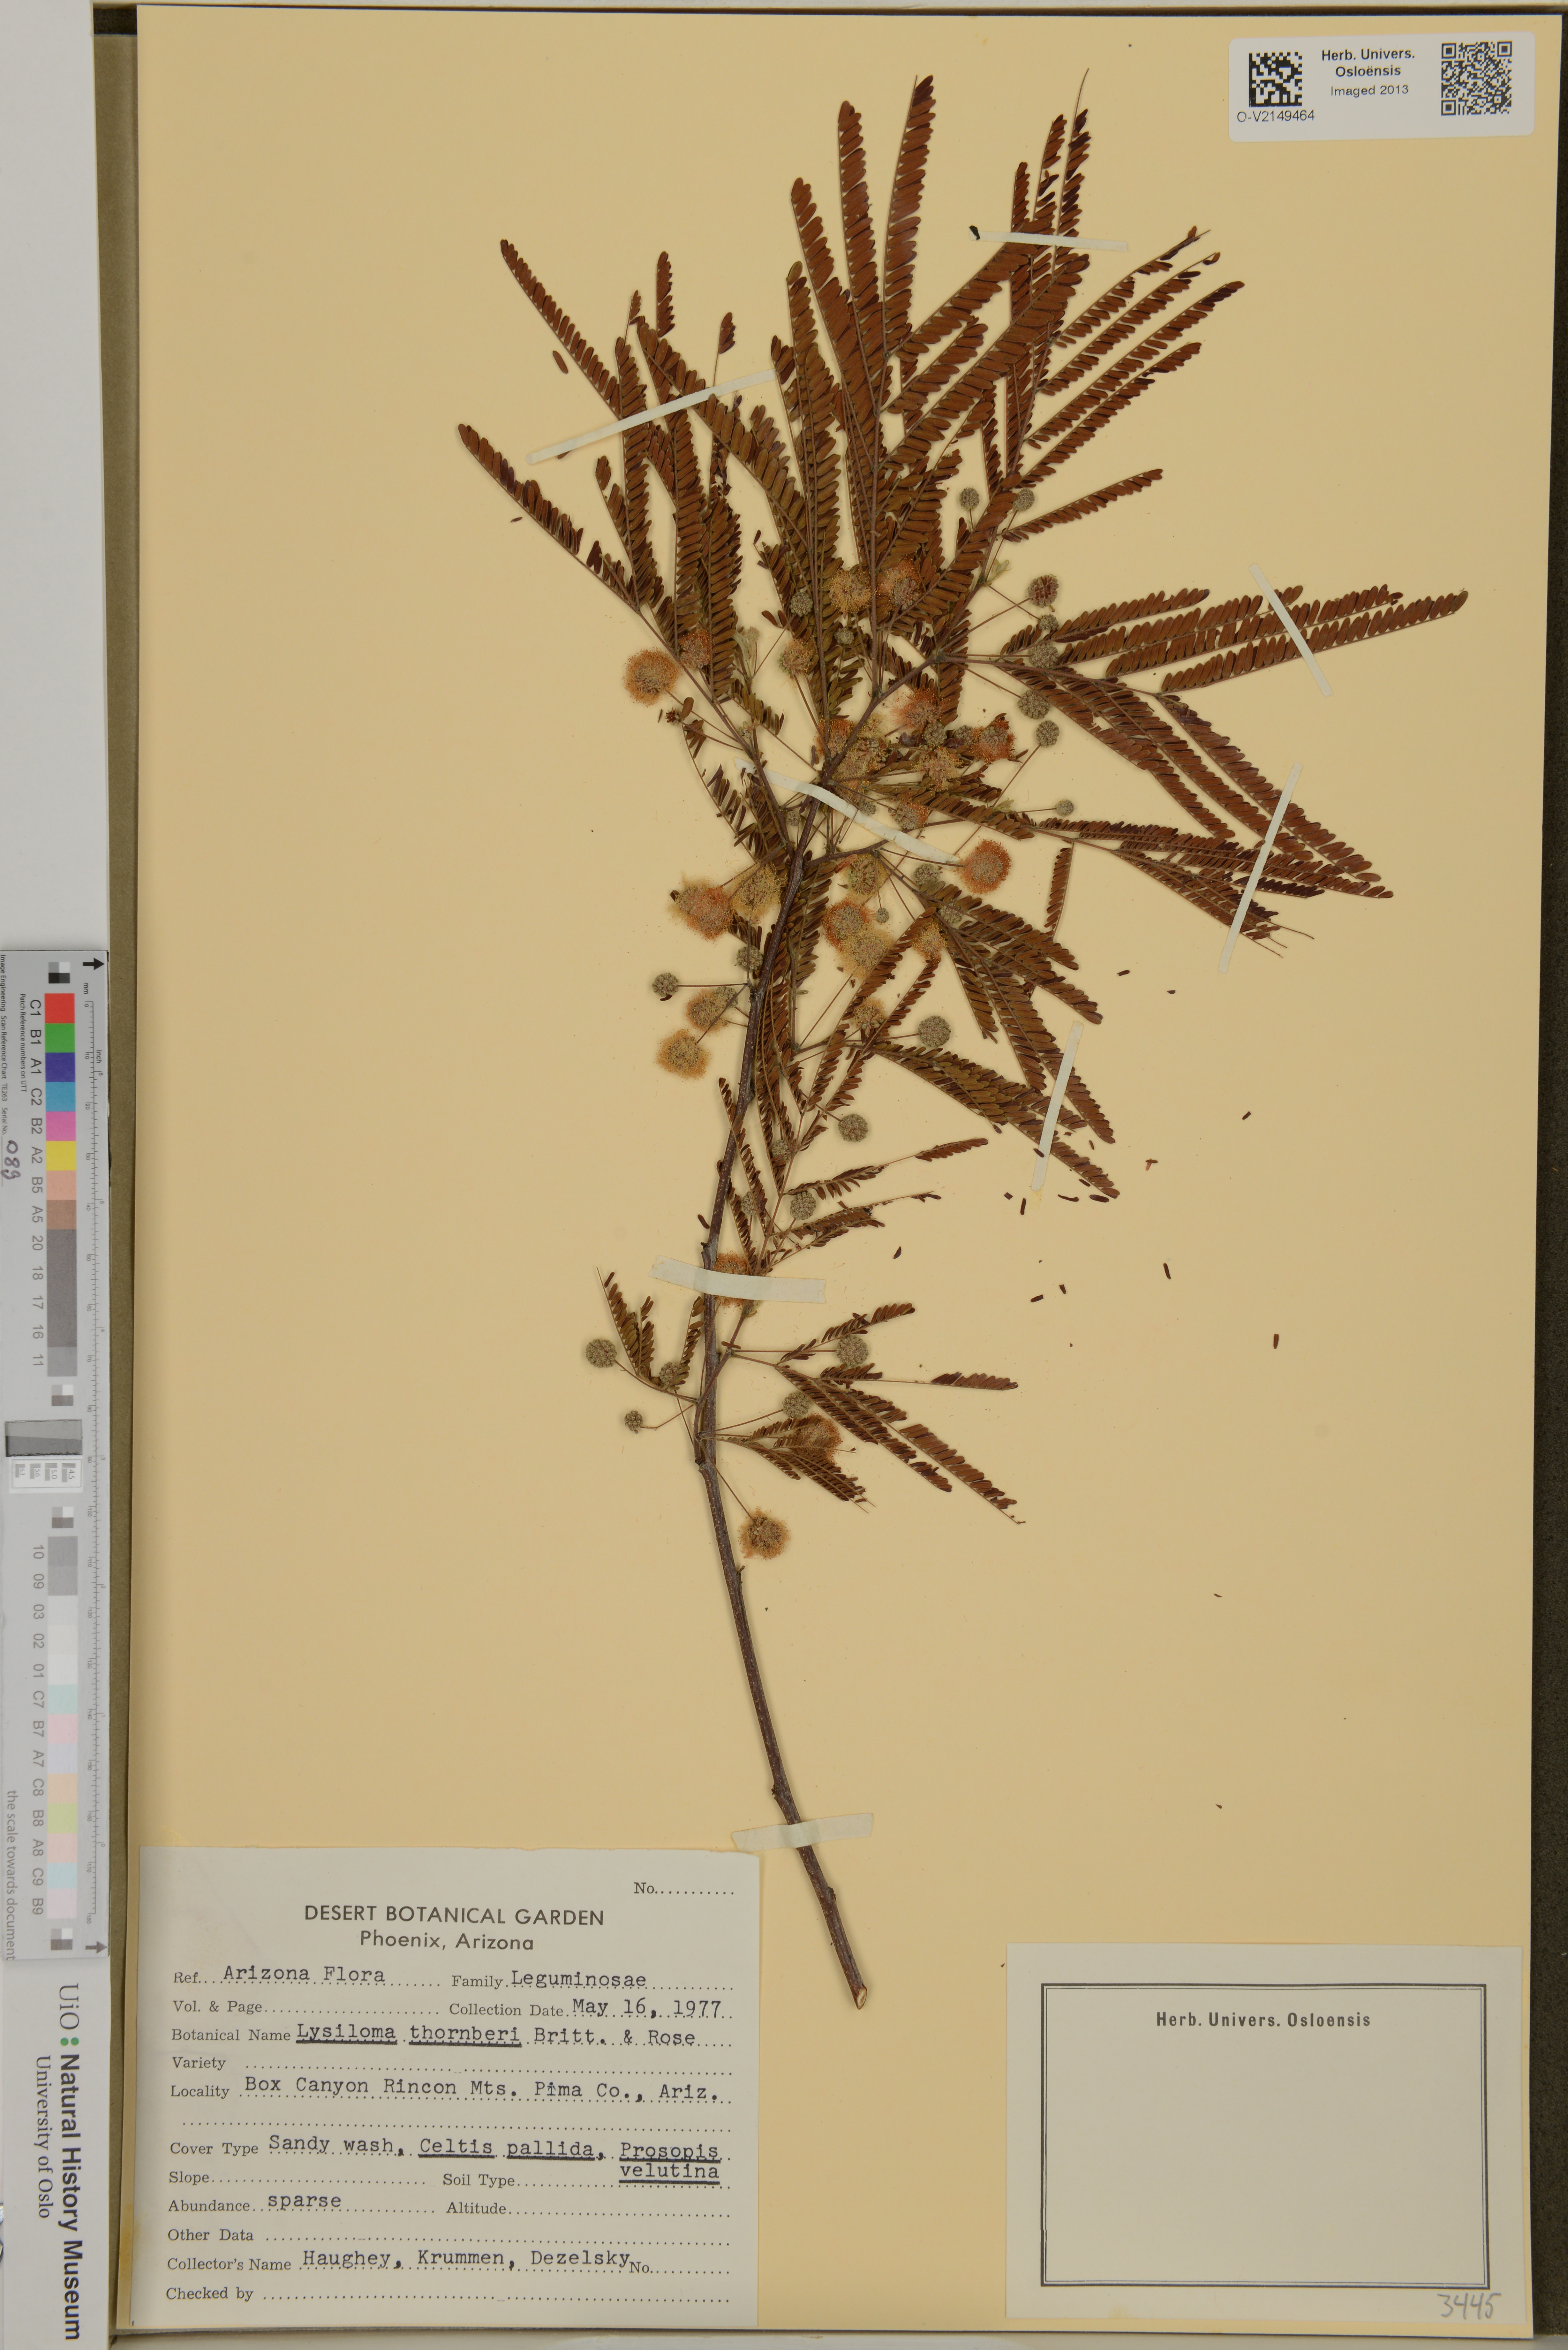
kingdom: Plantae
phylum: Tracheophyta
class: Magnoliopsida
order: Fabales
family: Fabaceae
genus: Lysiloma
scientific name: Lysiloma watsonii
